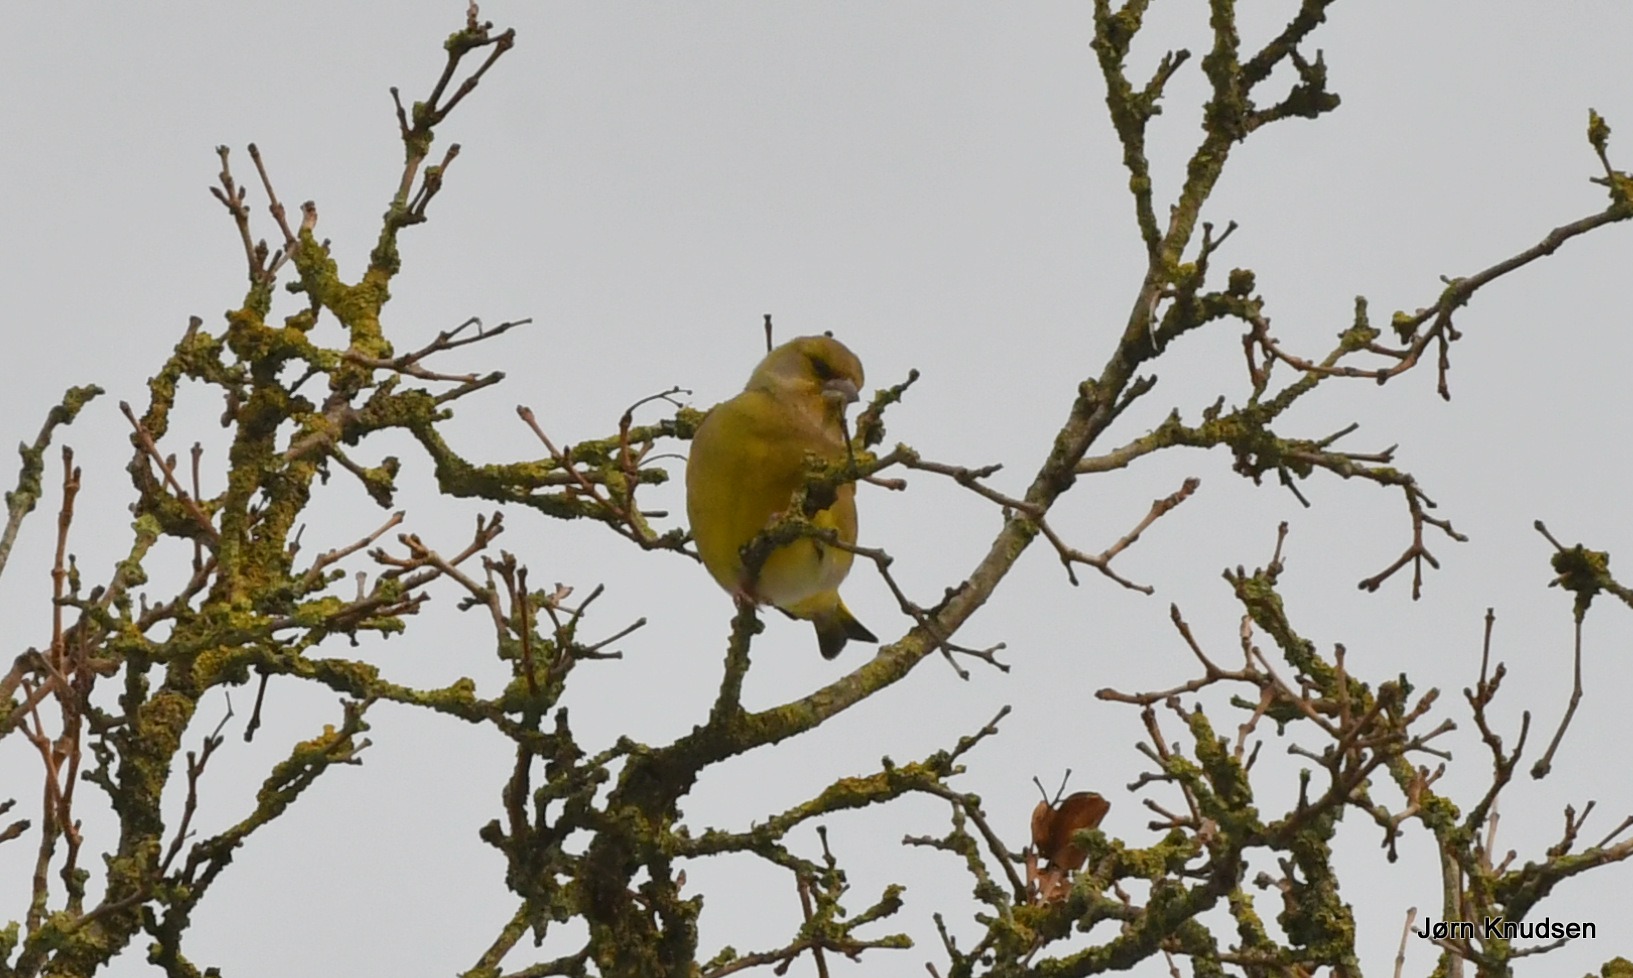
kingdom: Plantae
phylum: Tracheophyta
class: Liliopsida
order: Poales
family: Poaceae
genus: Chloris
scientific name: Chloris chloris
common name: Grønirisk
